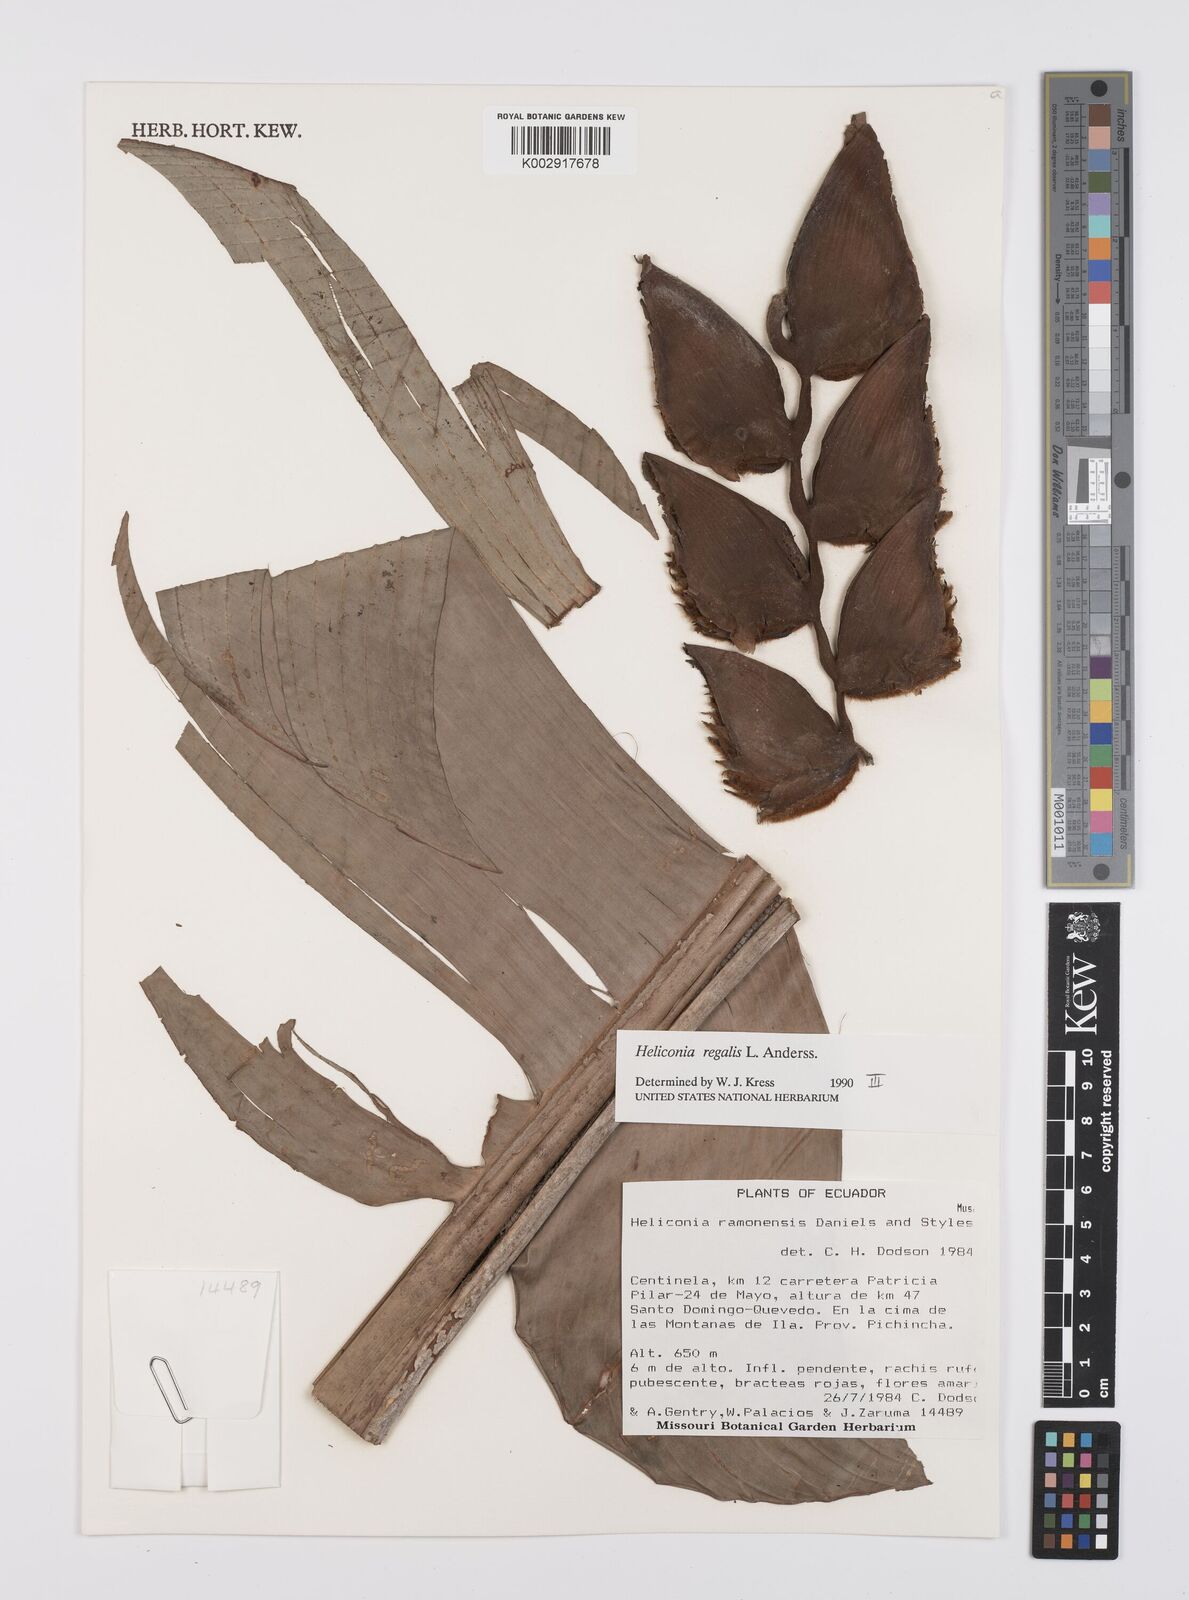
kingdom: Plantae
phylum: Tracheophyta
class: Liliopsida
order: Zingiberales
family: Heliconiaceae
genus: Heliconia
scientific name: Heliconia regalis
